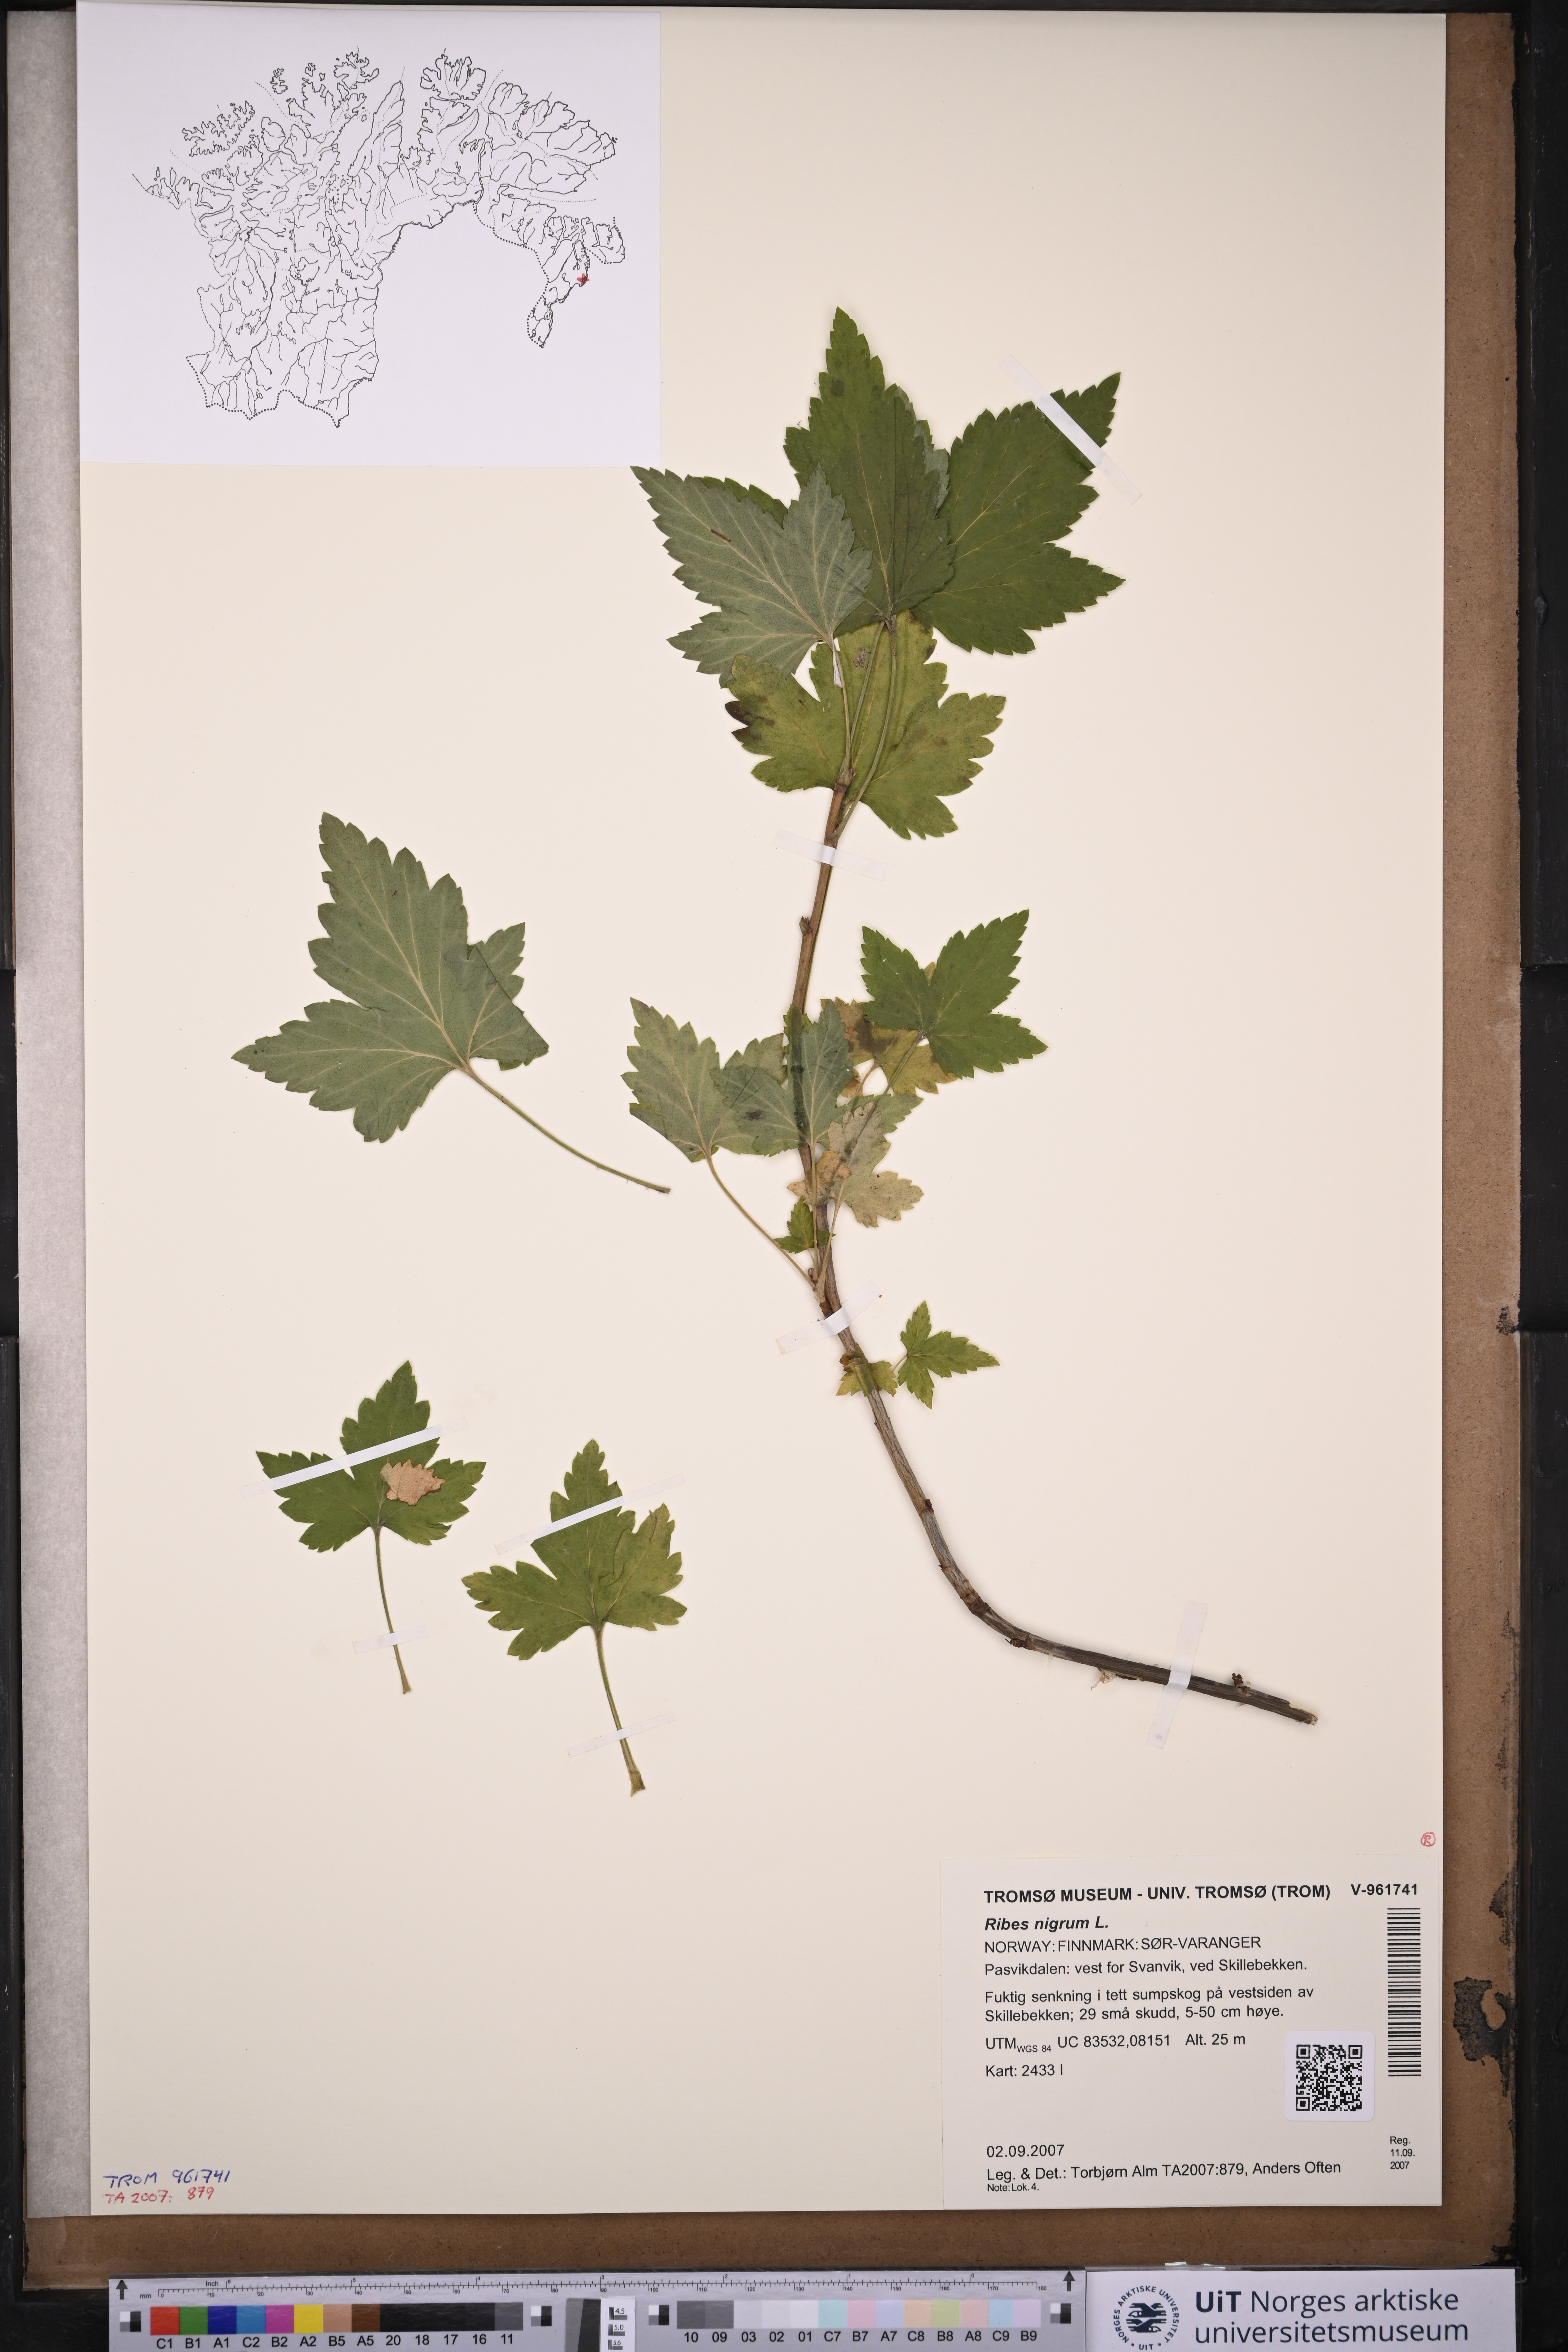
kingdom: Plantae
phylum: Tracheophyta
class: Magnoliopsida
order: Saxifragales
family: Grossulariaceae
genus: Ribes
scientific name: Ribes nigrum
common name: Black currant
